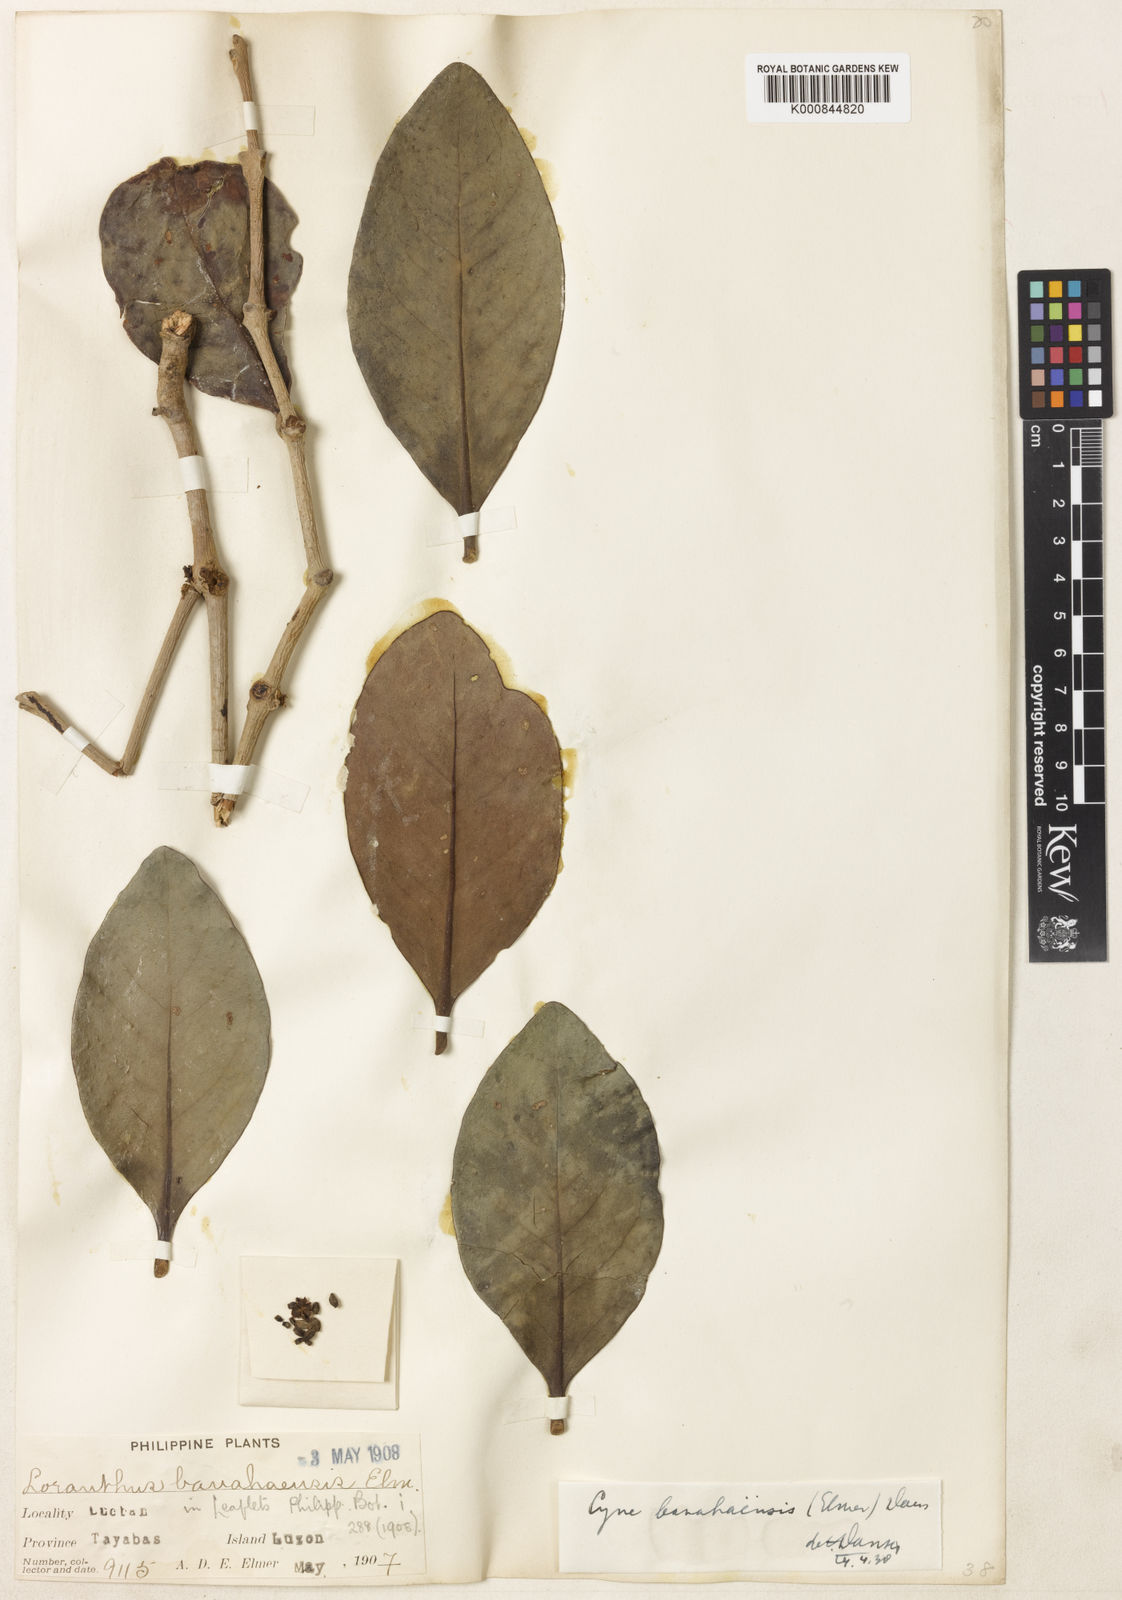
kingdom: Plantae
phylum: Tracheophyta
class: Magnoliopsida
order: Santalales
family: Loranthaceae
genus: Cyne
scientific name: Cyne banahaensis
